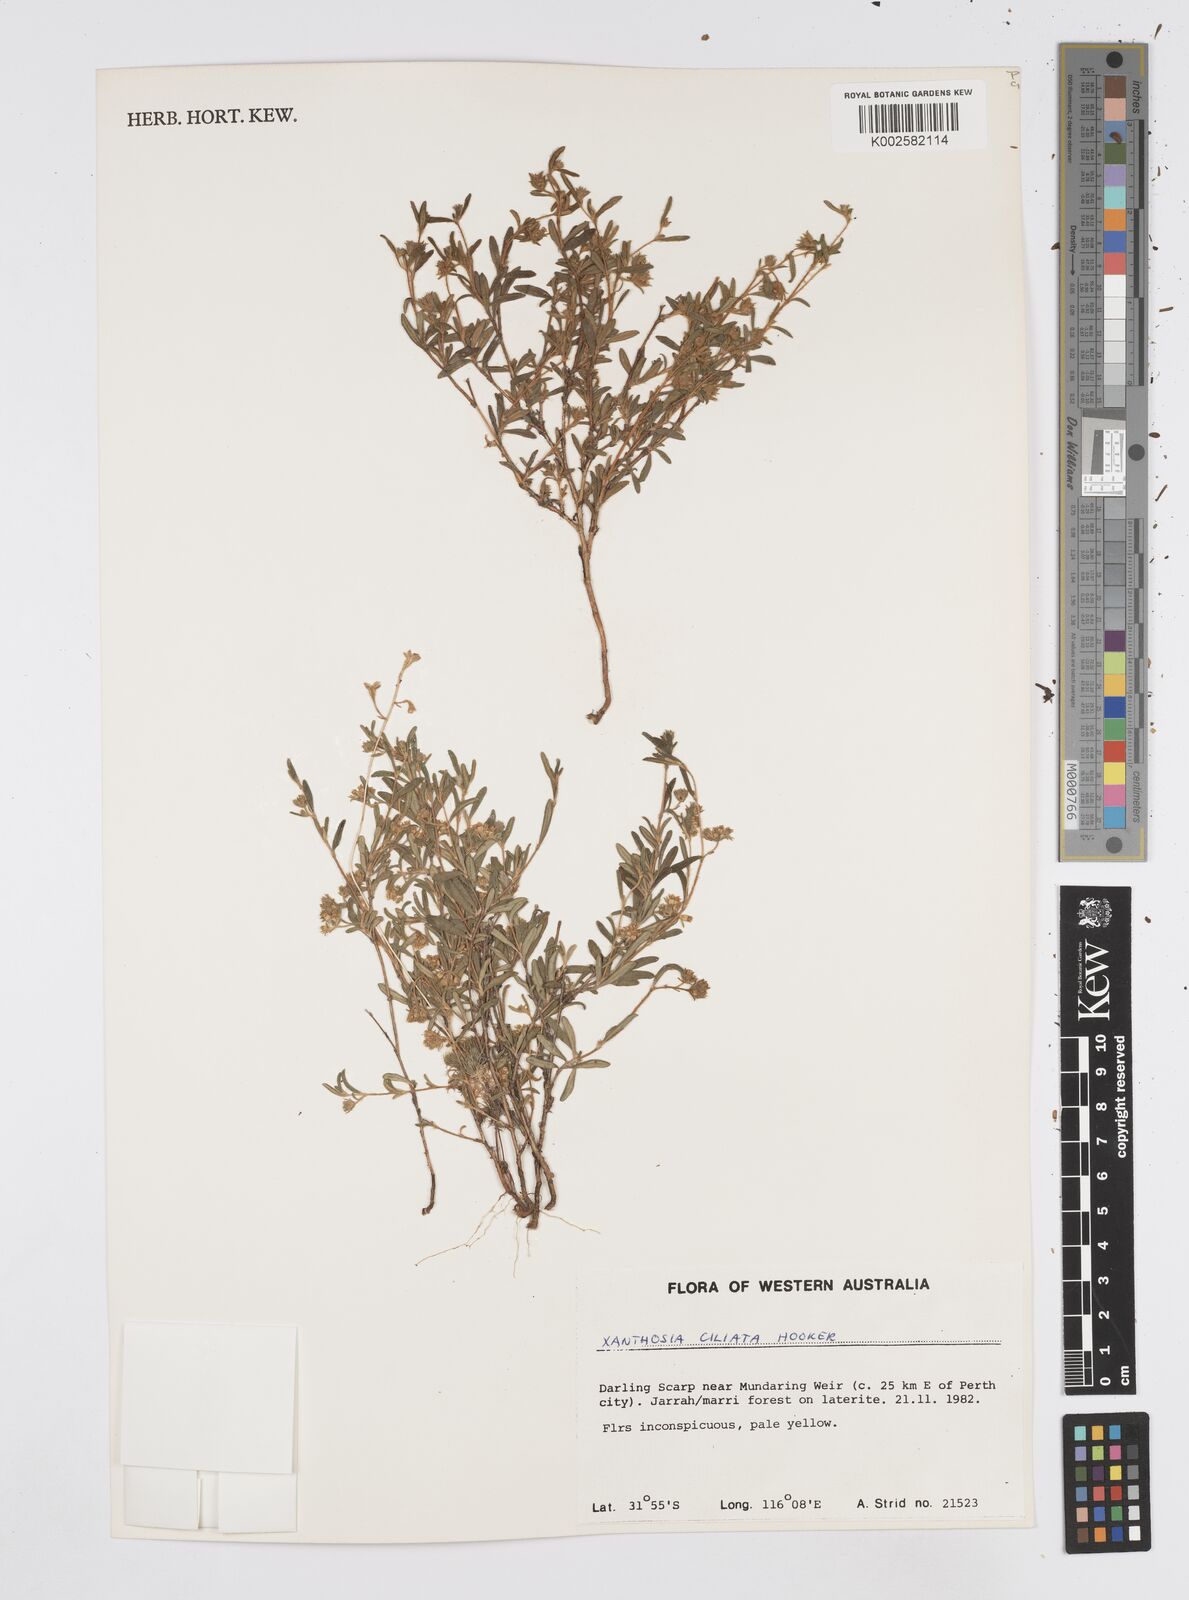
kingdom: Plantae
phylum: Tracheophyta
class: Magnoliopsida
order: Apiales
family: Apiaceae
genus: Xanthosia
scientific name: Xanthosia ciliata
